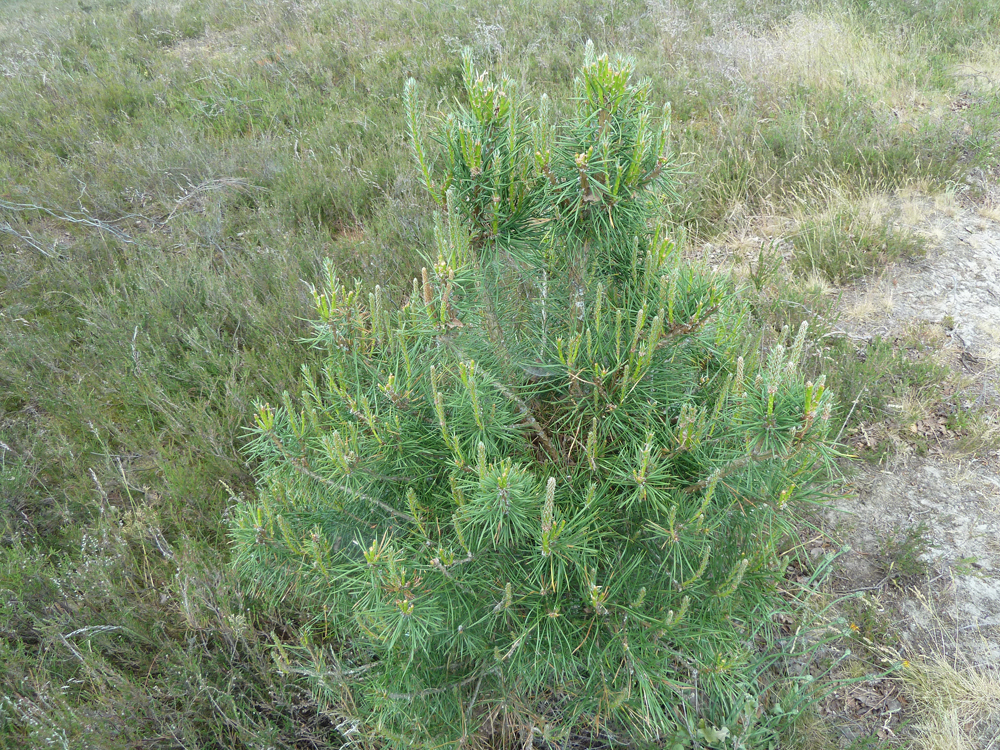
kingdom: Plantae
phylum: Tracheophyta
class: Pinopsida
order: Pinales
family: Pinaceae
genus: Pinus
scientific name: Pinus sylvestris
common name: Scots pine
